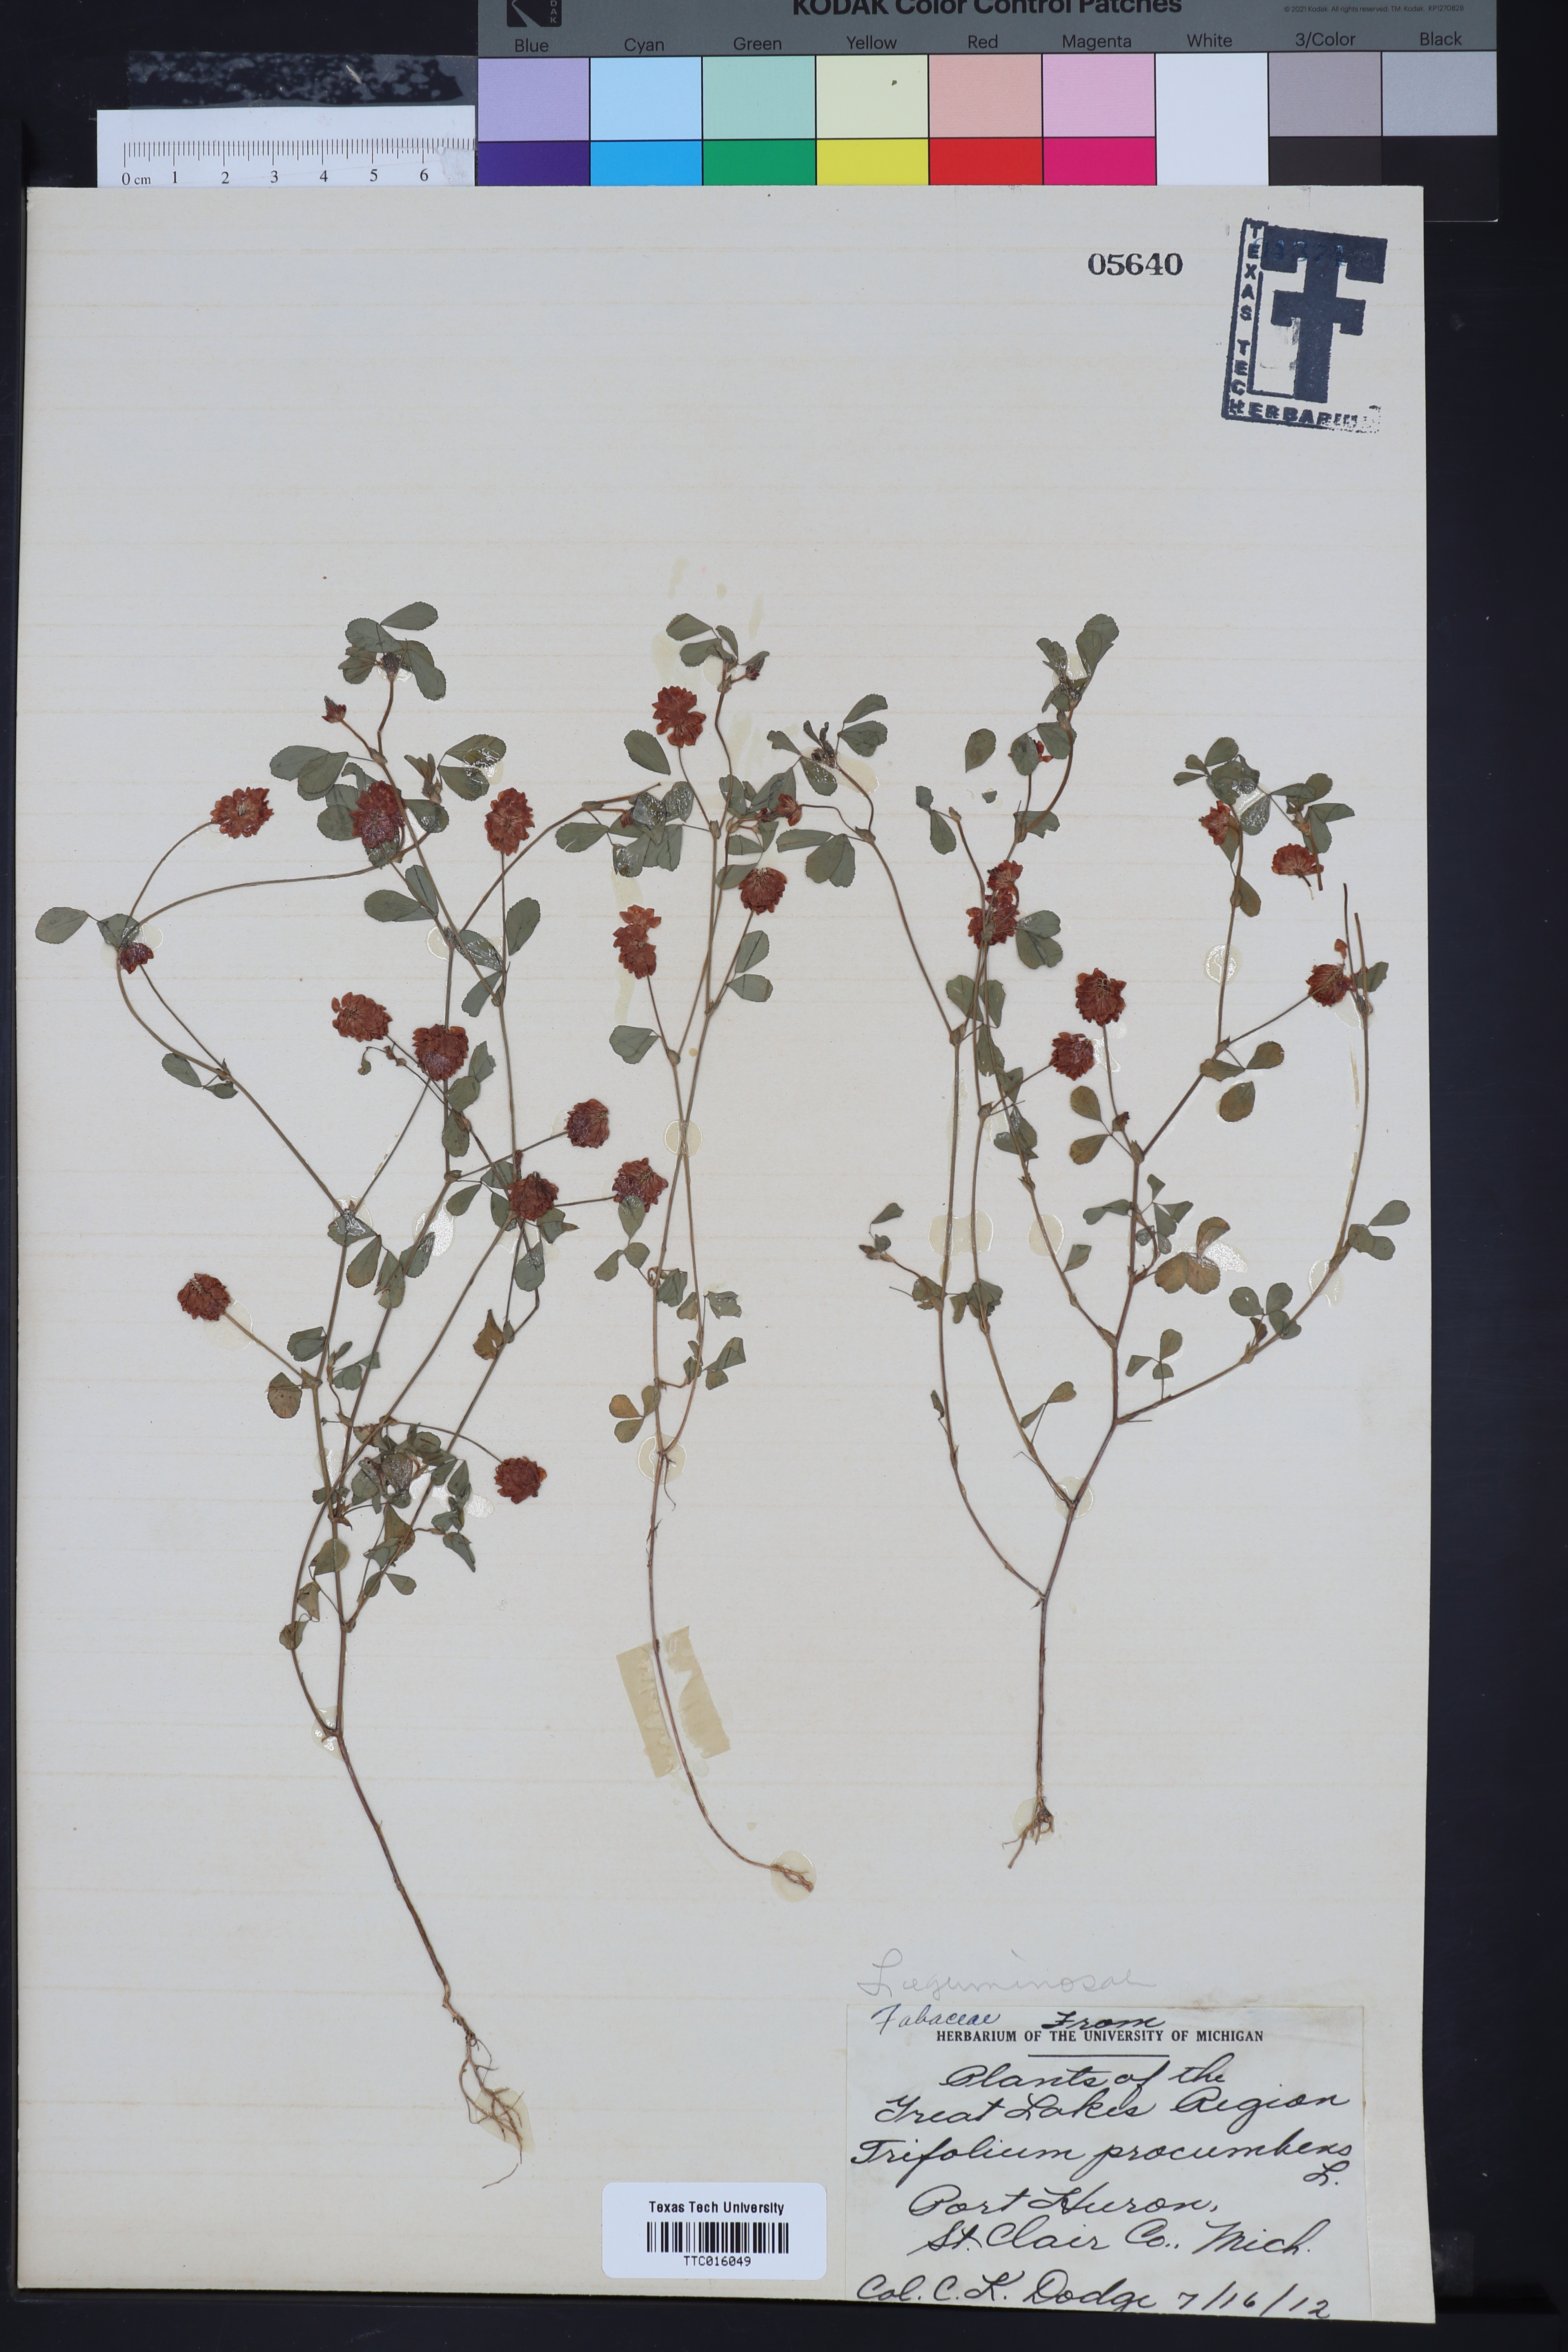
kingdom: Plantae
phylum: Tracheophyta
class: Magnoliopsida
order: Fabales
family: Fabaceae
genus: Trifolium
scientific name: Trifolium repens
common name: White clover
